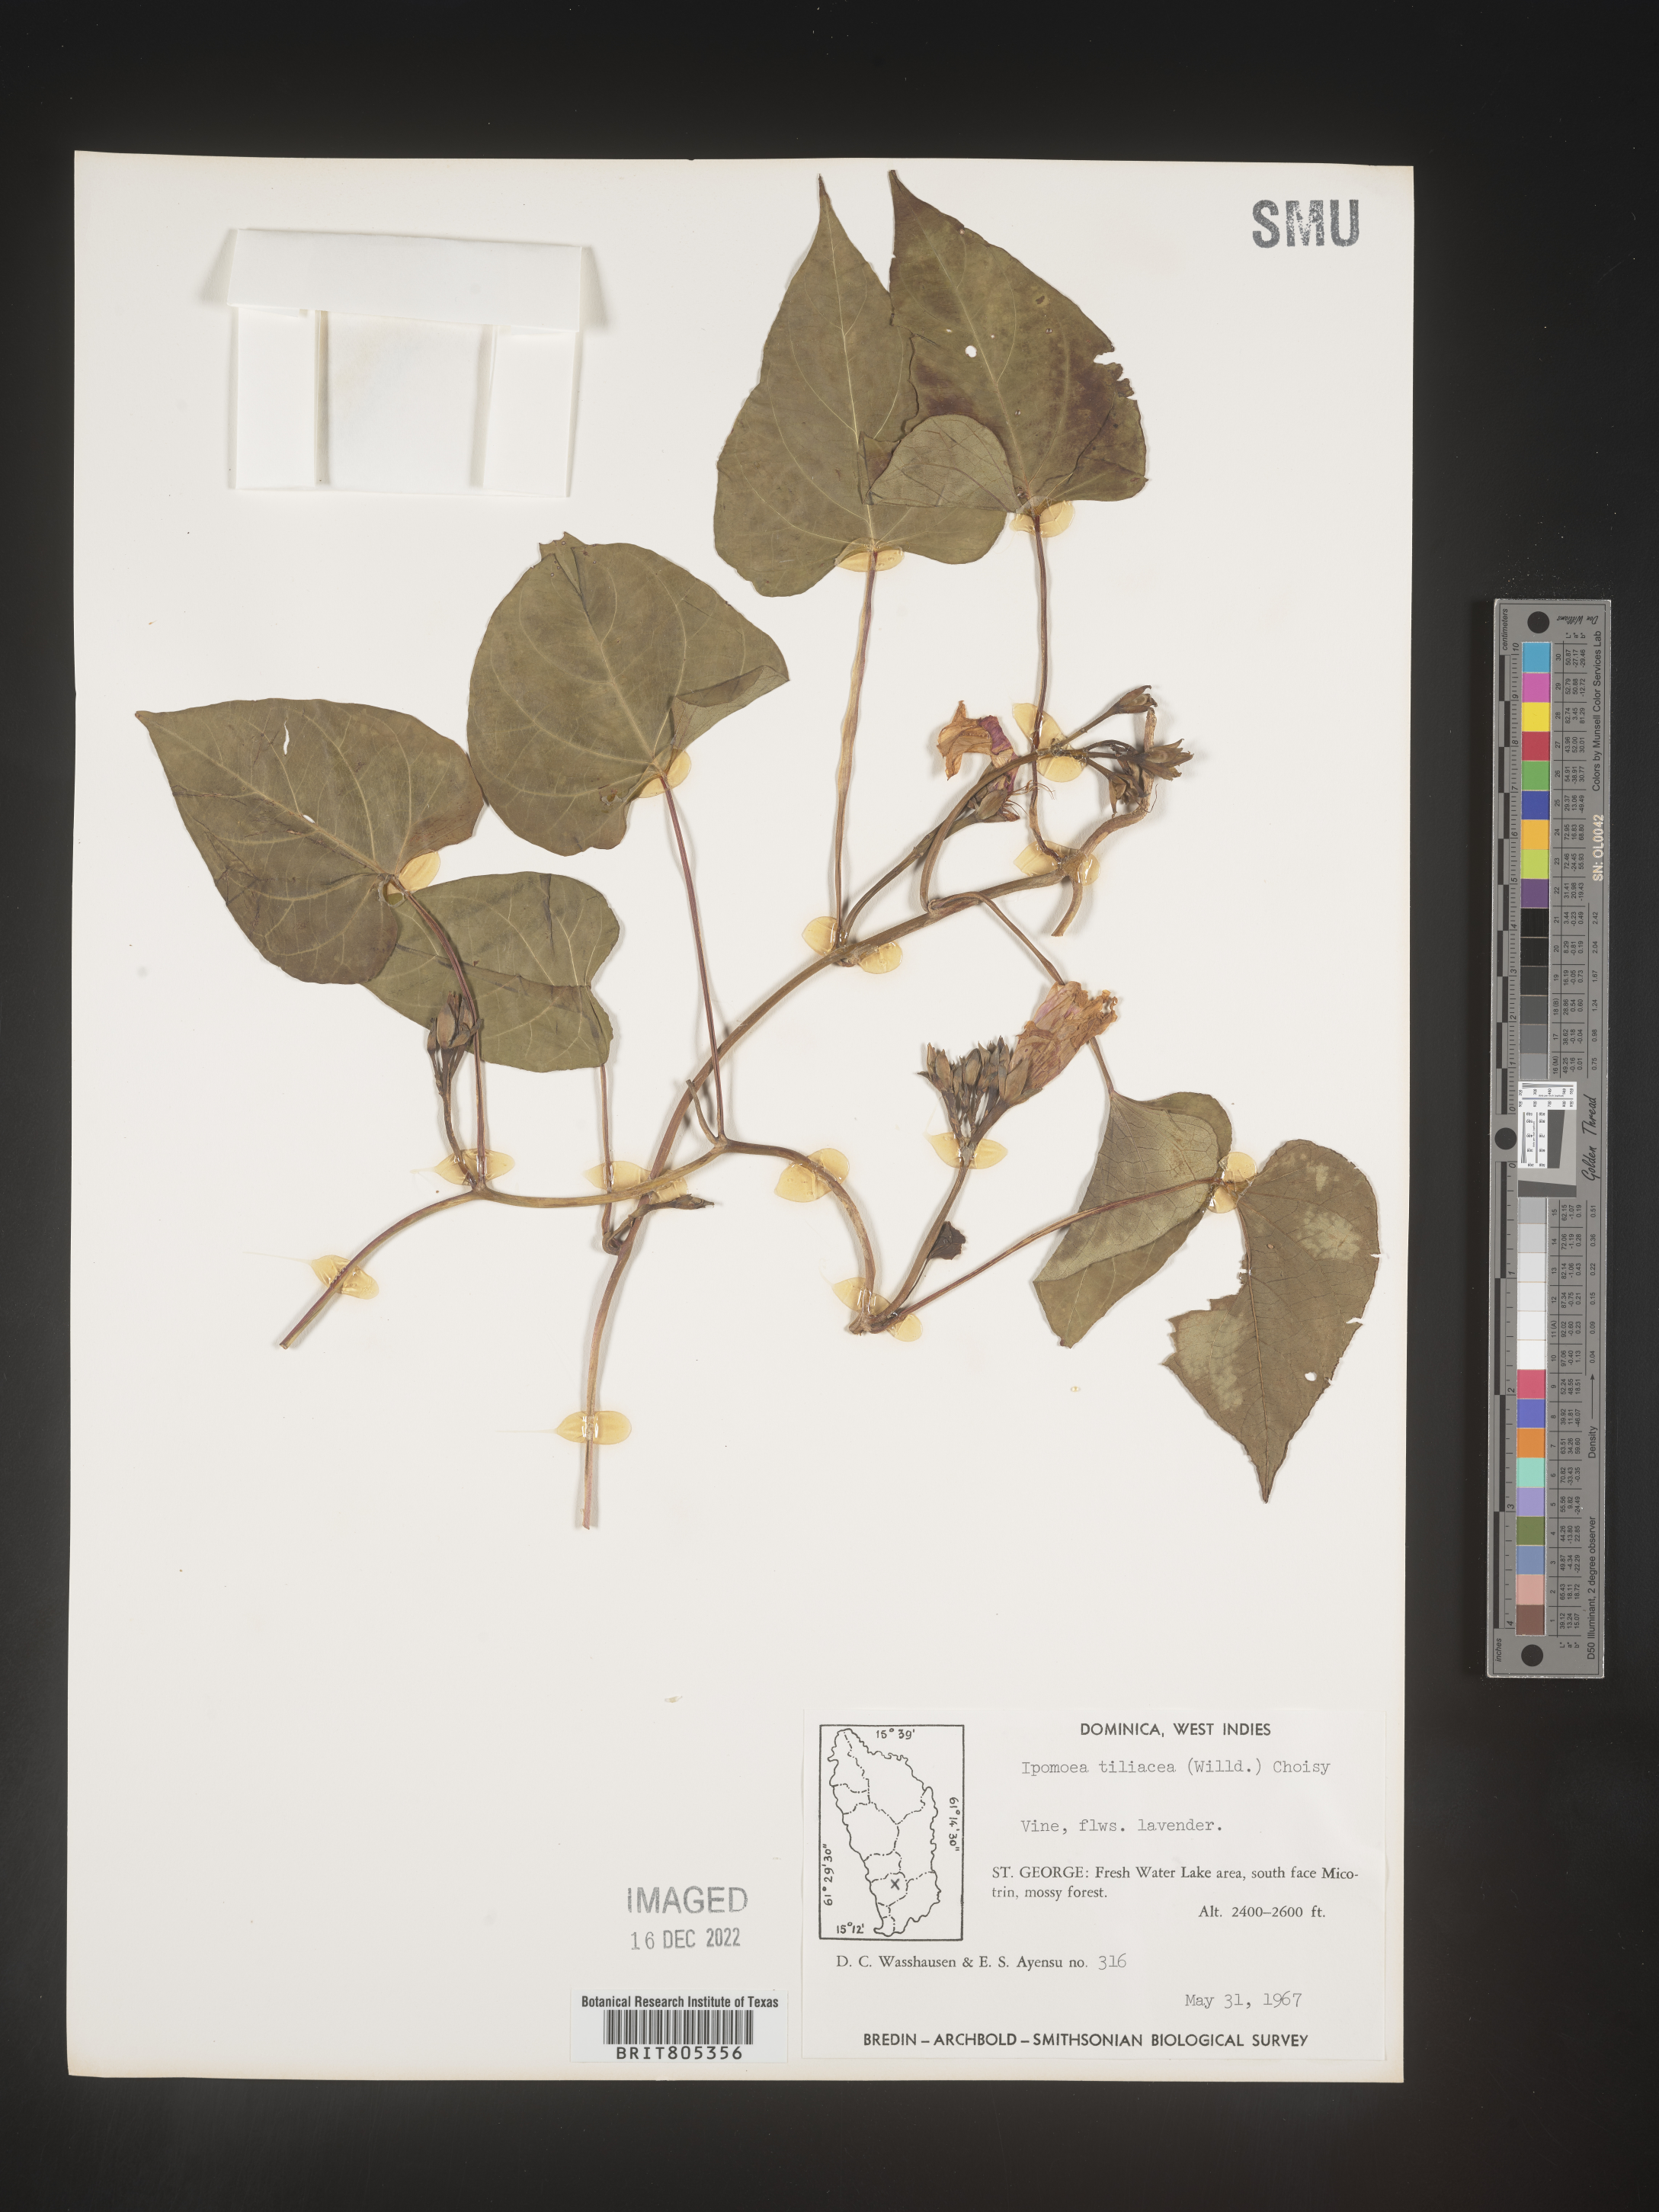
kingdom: Plantae
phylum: Tracheophyta
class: Magnoliopsida
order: Solanales
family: Convolvulaceae
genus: Ipomoea
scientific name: Ipomoea
